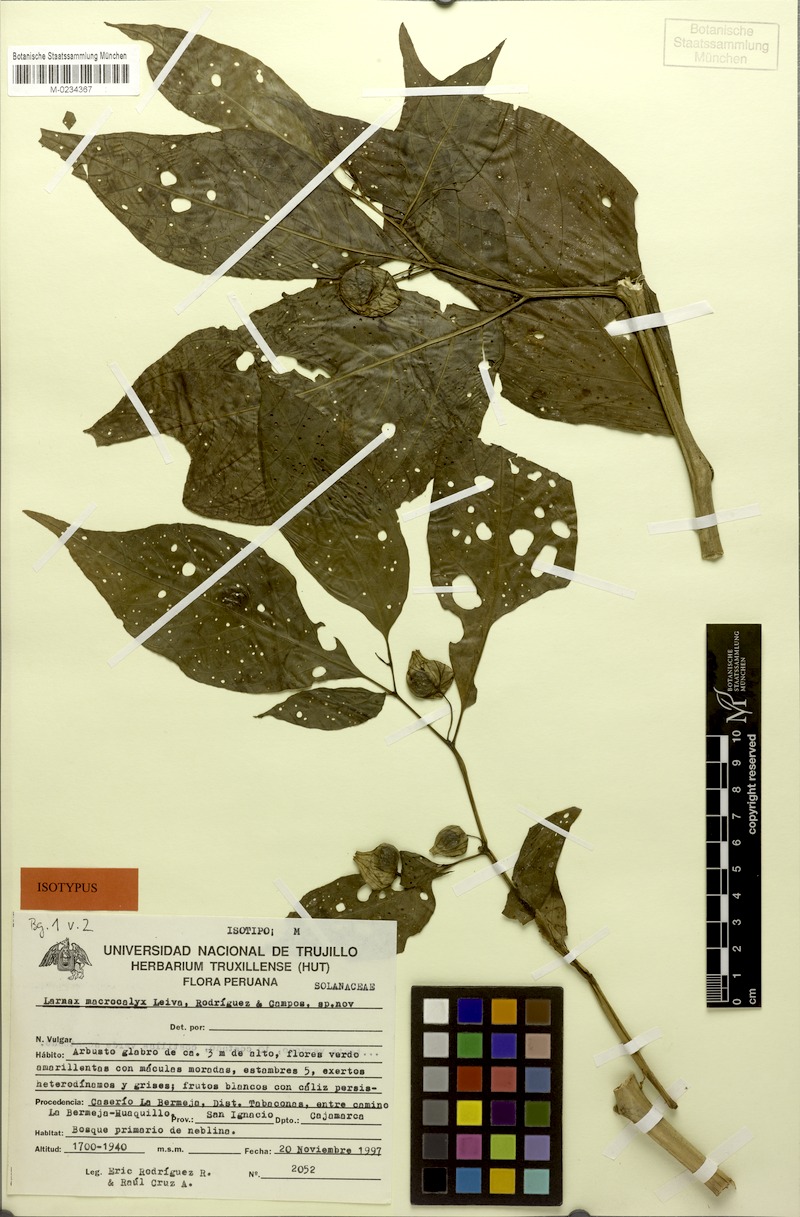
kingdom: Plantae
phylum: Tracheophyta
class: Magnoliopsida
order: Solanales
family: Solanaceae
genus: Deprea
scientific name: Deprea macrocalyx
